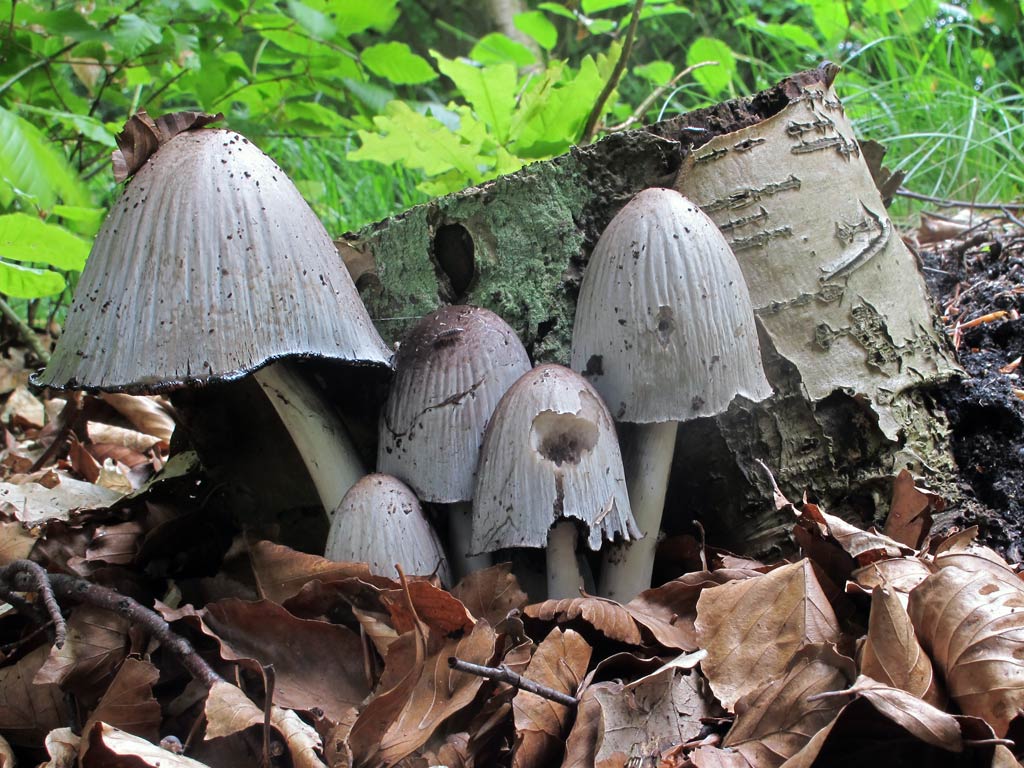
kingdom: Fungi
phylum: Basidiomycota
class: Agaricomycetes
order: Agaricales
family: Psathyrellaceae
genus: Coprinopsis
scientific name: Coprinopsis atramentaria
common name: almindelig blækhat
